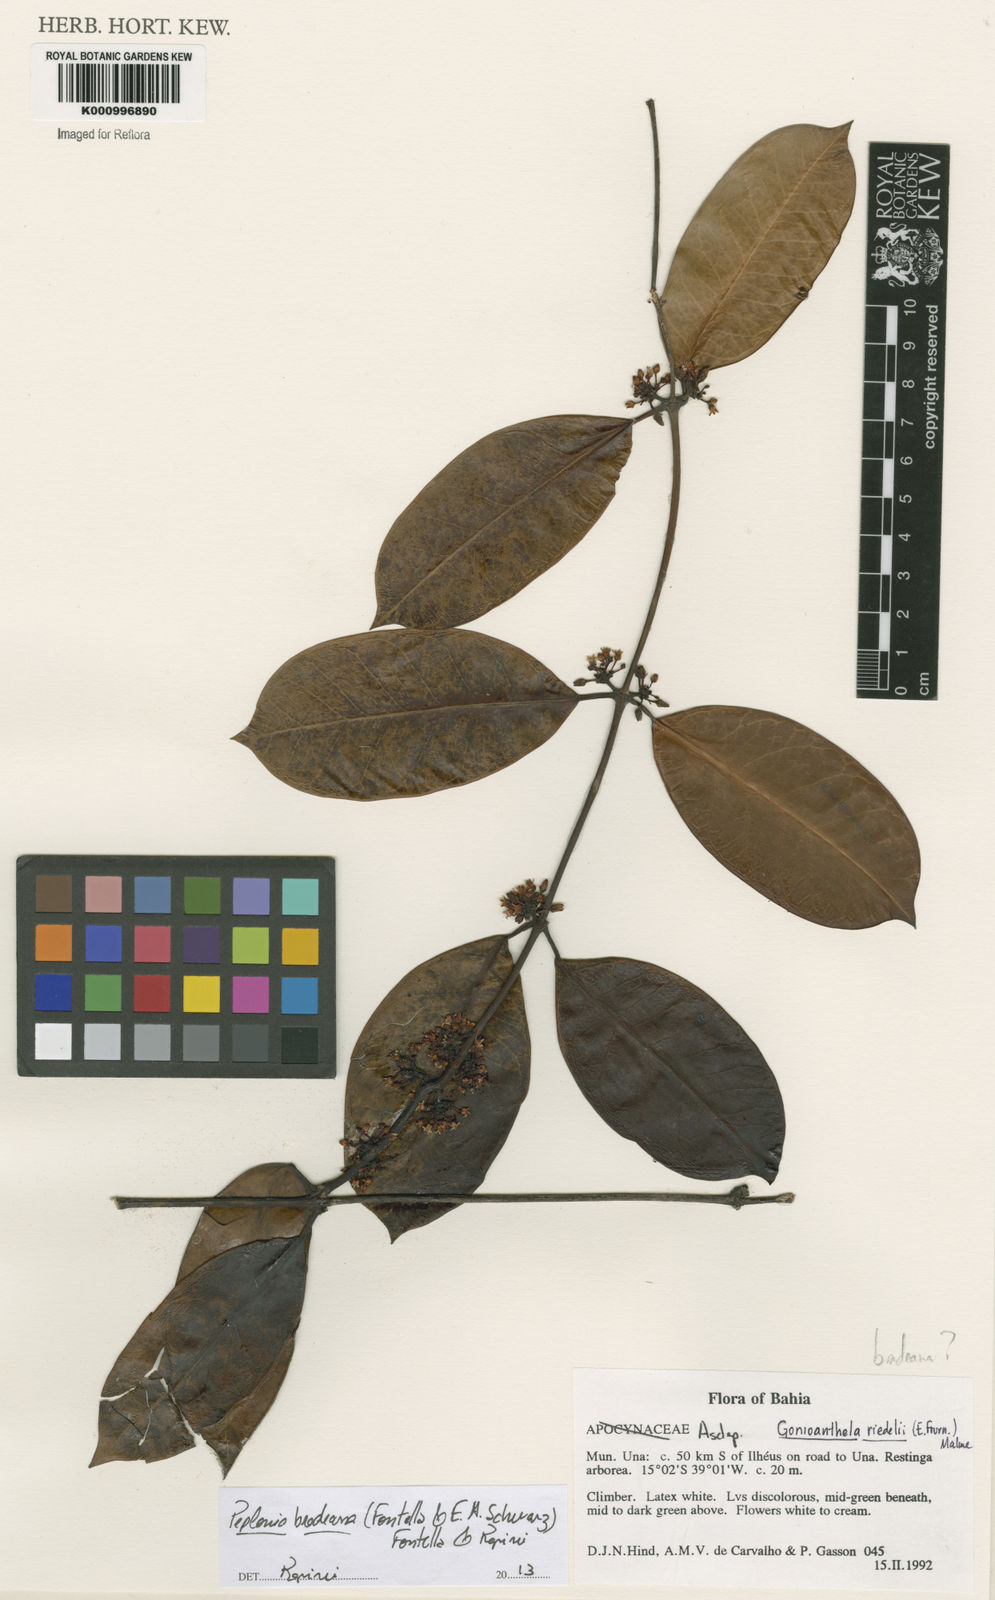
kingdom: Plantae
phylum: Tracheophyta
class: Magnoliopsida
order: Gentianales
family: Apocynaceae
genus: Peplonia
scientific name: Peplonia bradeana
